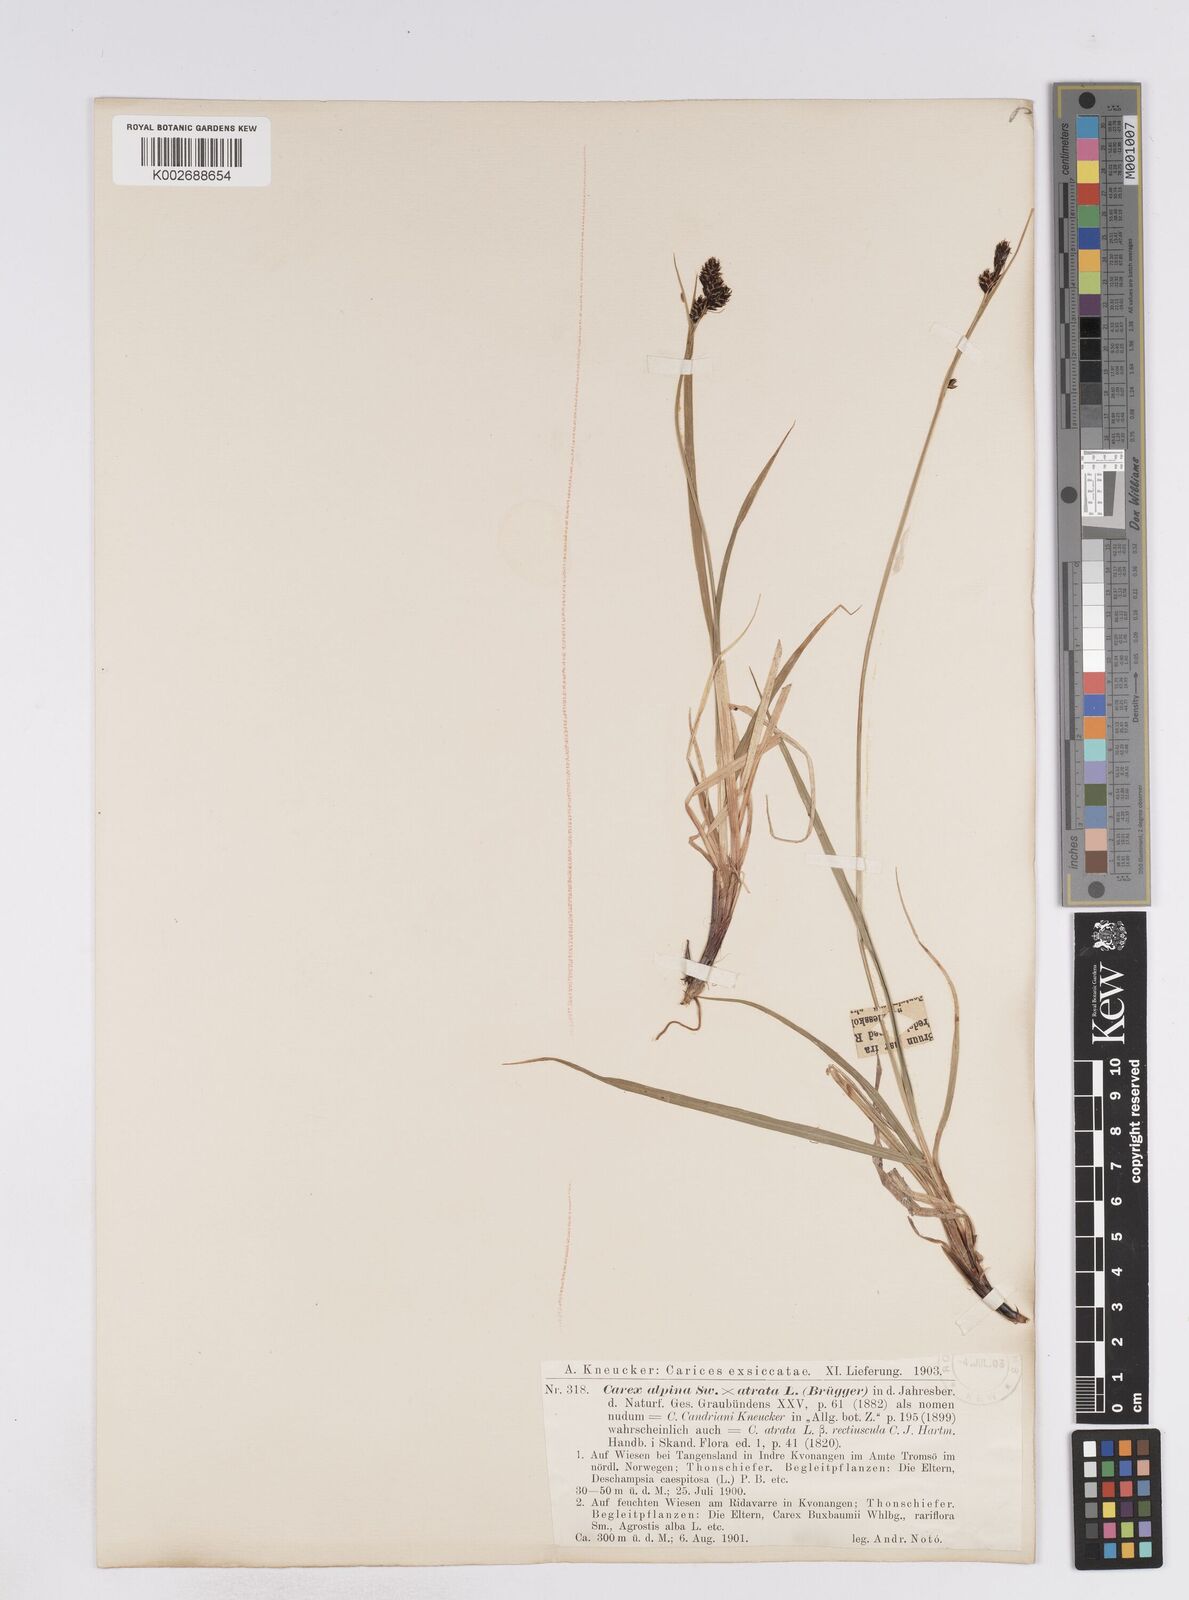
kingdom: Plantae
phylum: Tracheophyta
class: Liliopsida
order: Poales
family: Cyperaceae
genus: Carex
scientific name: Carex norvegica
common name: Close-headed alpine-sedge
